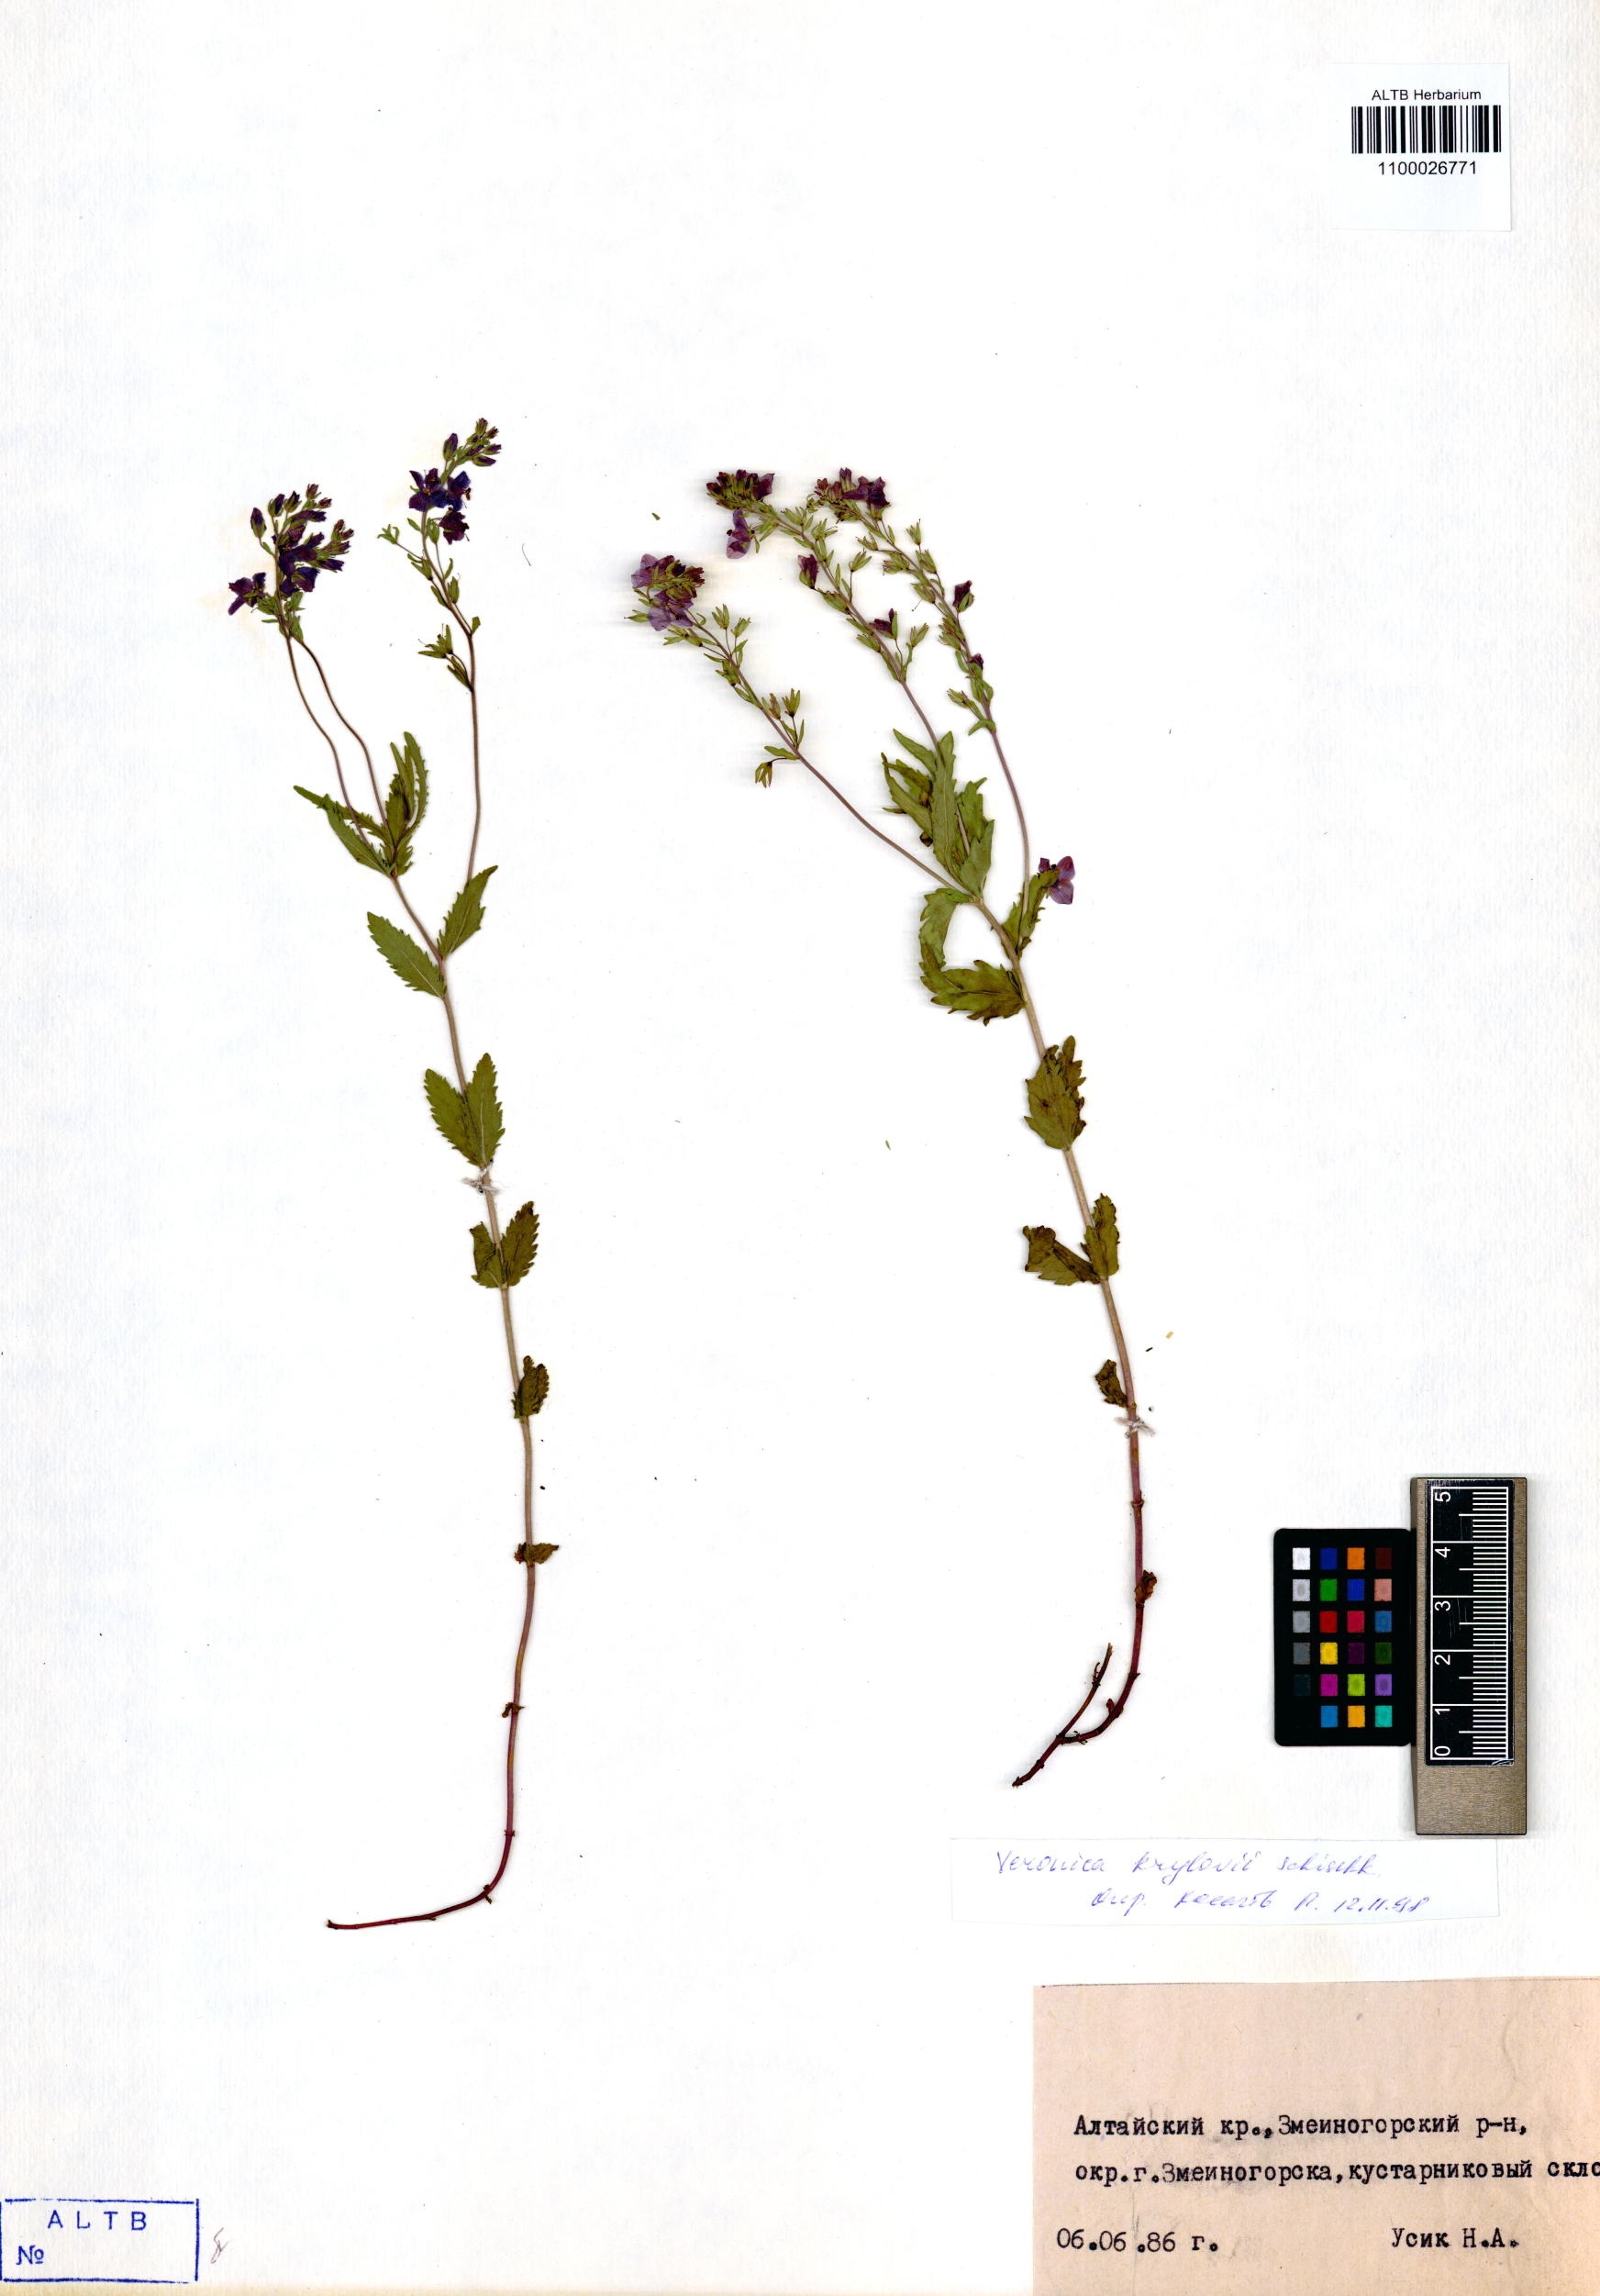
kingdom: Plantae
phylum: Tracheophyta
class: Magnoliopsida
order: Lamiales
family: Plantaginaceae
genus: Veronica
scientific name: Veronica krylovii
